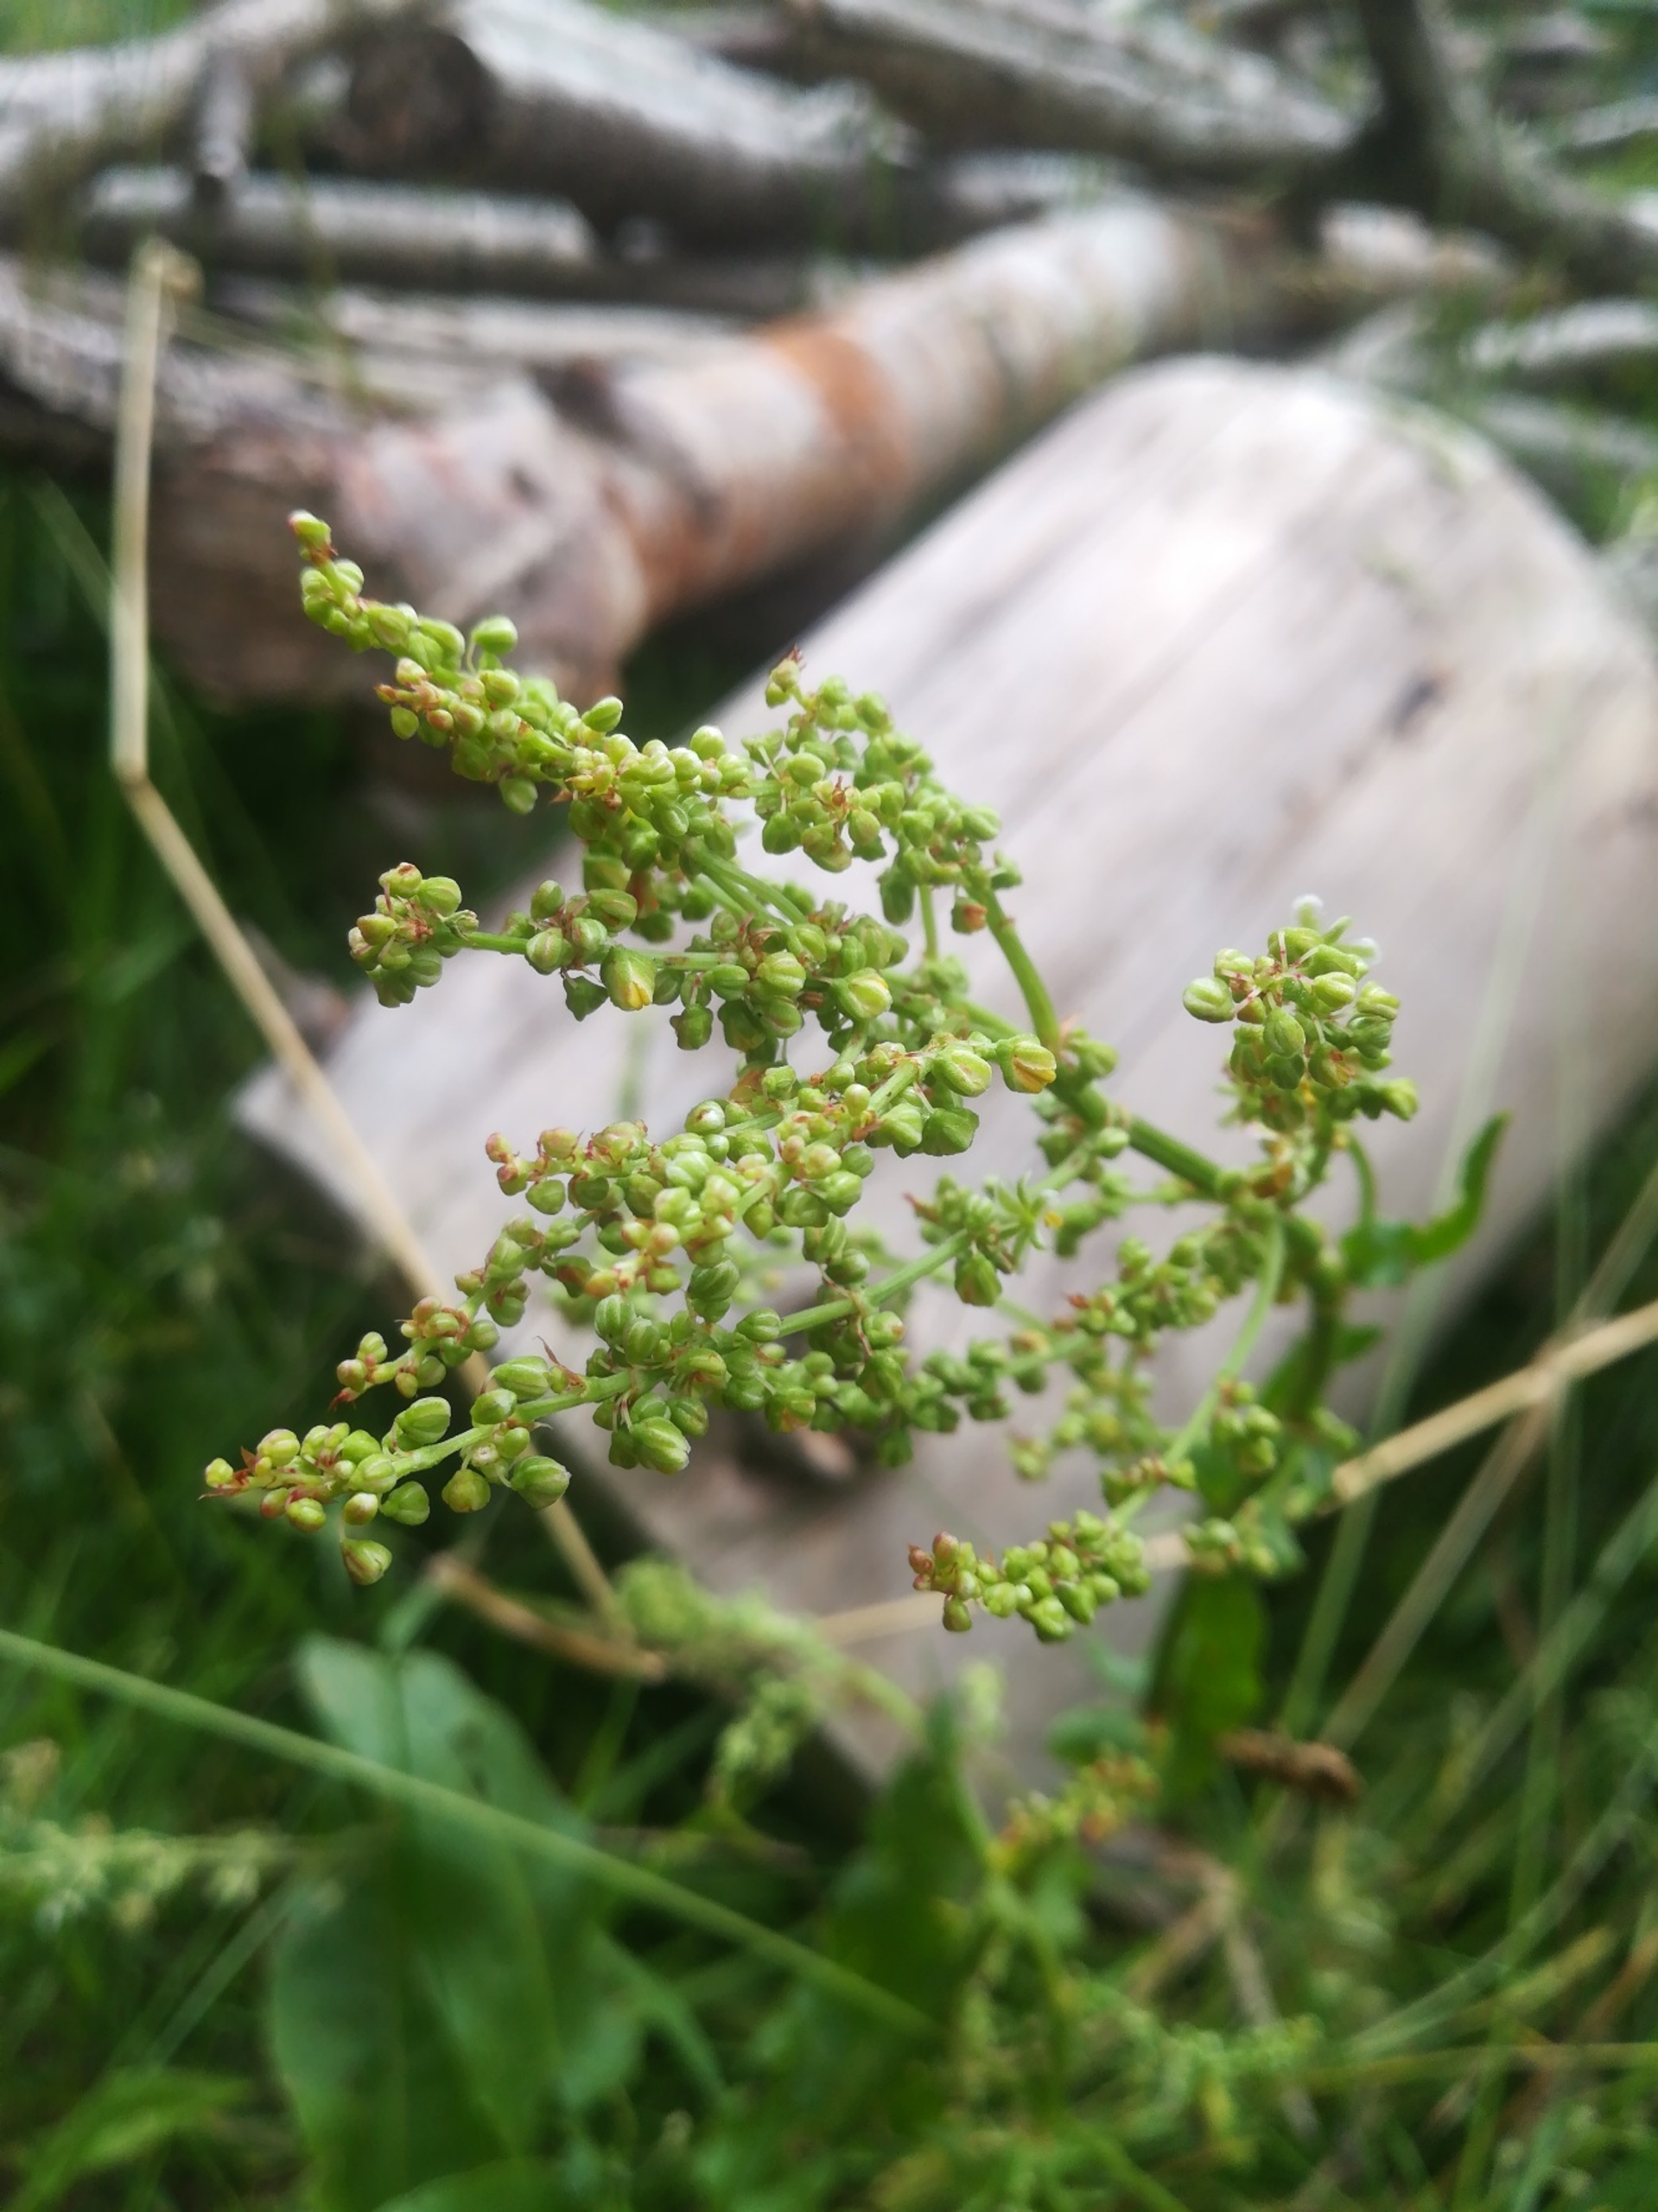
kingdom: Plantae
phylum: Tracheophyta
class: Magnoliopsida
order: Caryophyllales
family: Polygonaceae
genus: Rumex
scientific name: Rumex acetosa
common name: Almindelig syre
